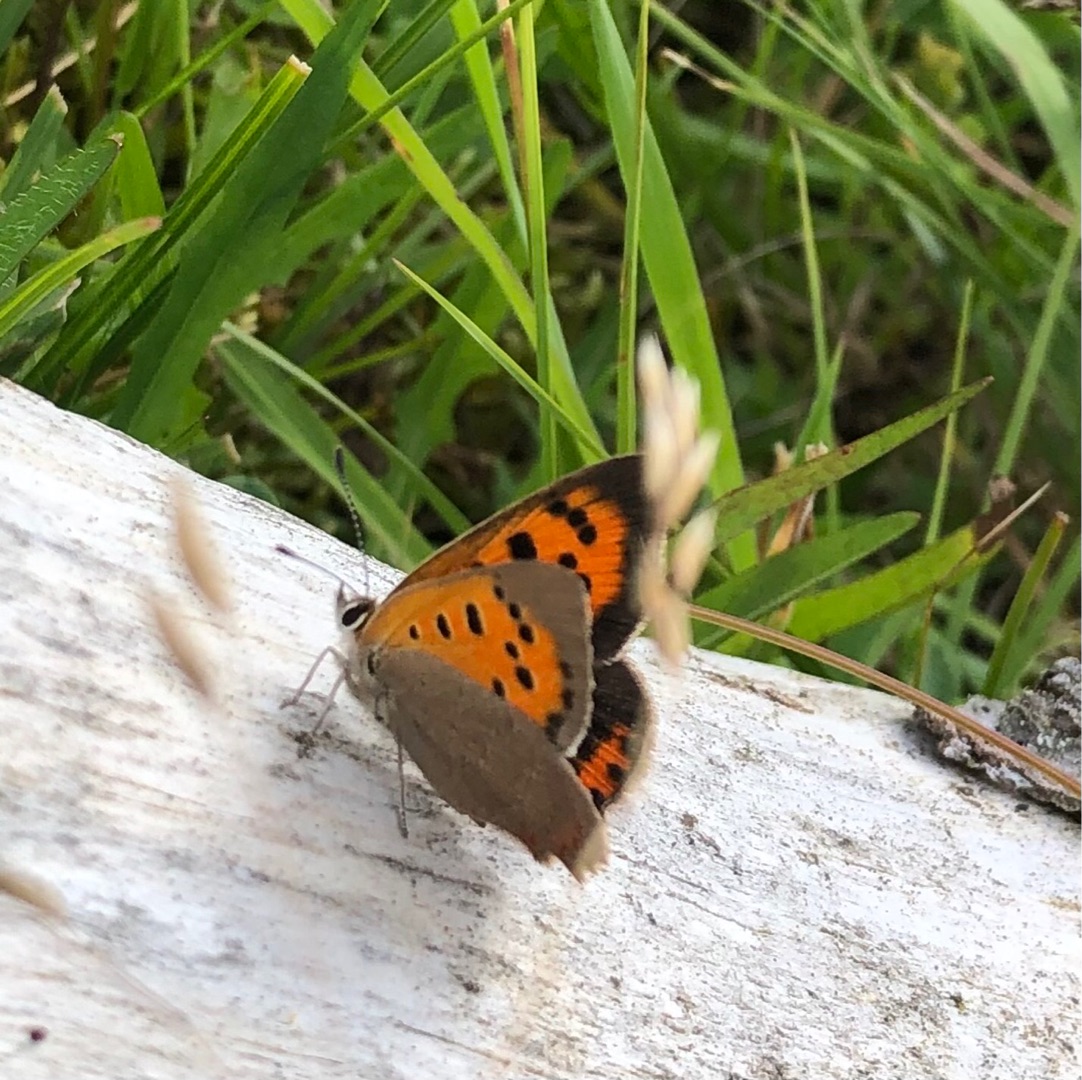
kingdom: Animalia
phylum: Arthropoda
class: Insecta
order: Lepidoptera
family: Lycaenidae
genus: Lycaena
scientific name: Lycaena phlaeas
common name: Lille ildfugl
